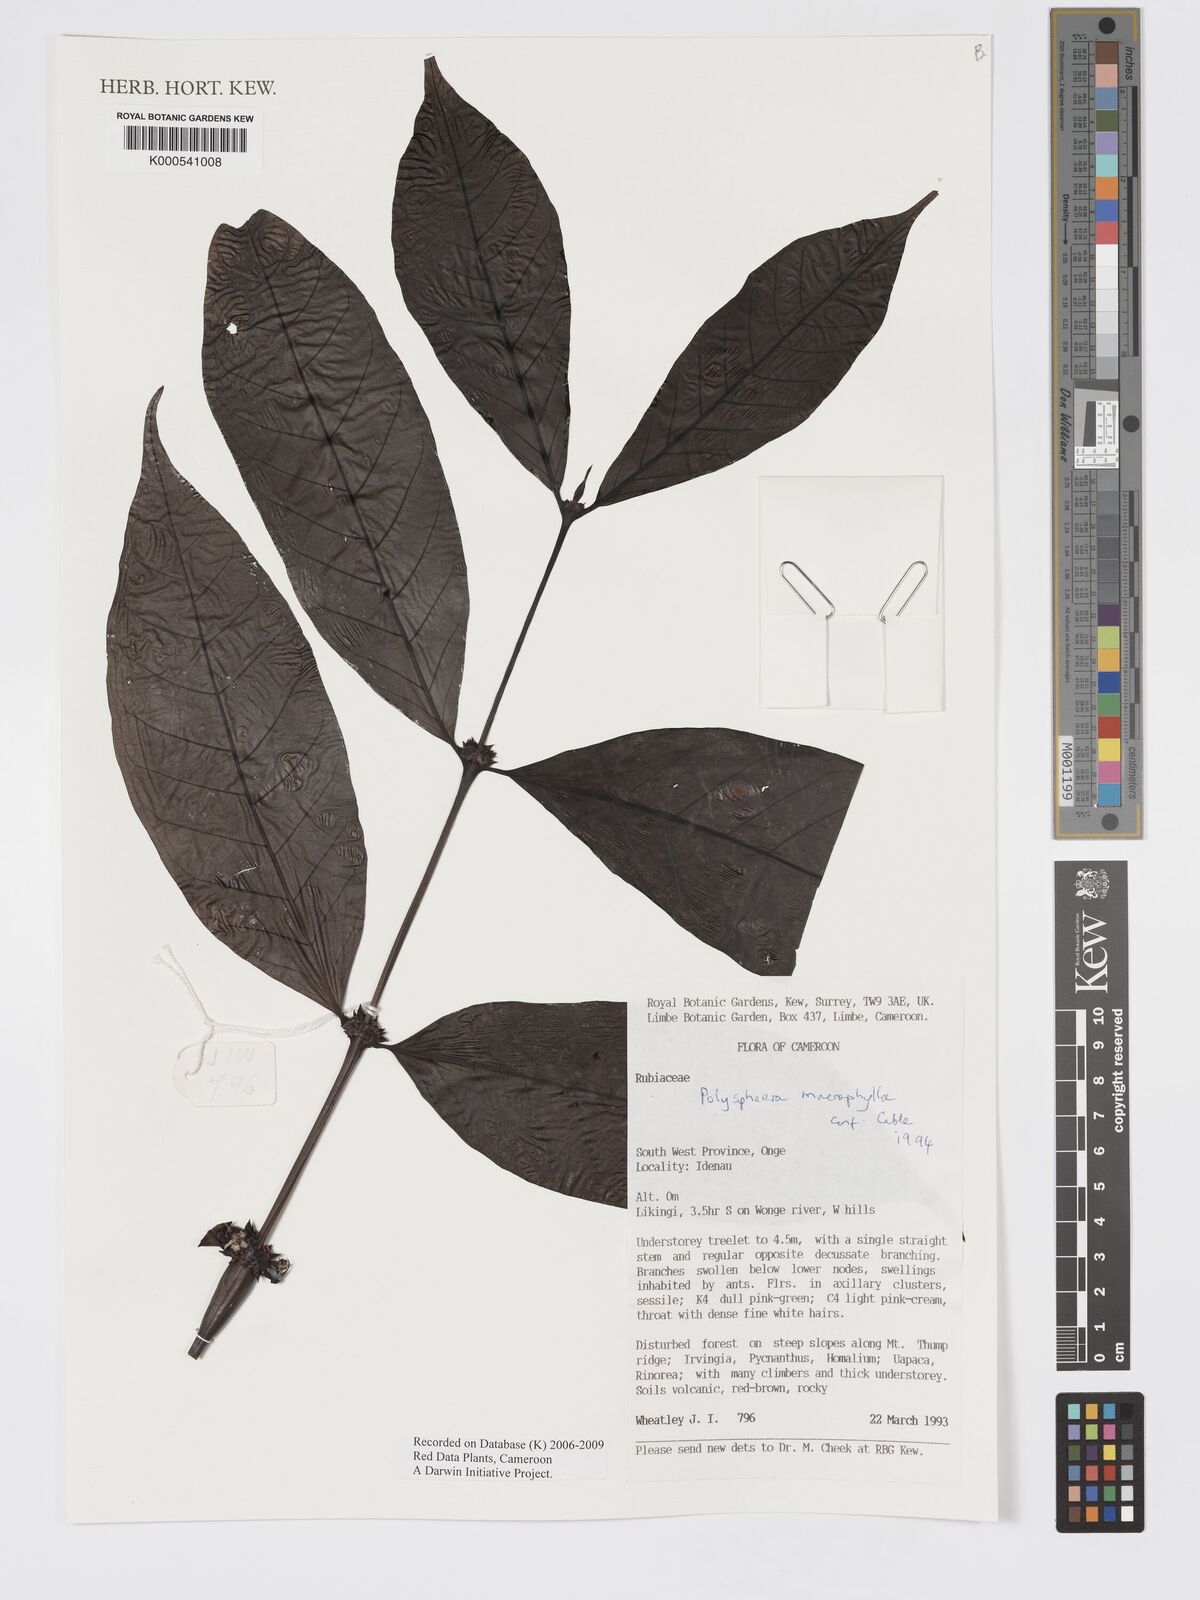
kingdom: Plantae
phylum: Tracheophyta
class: Magnoliopsida
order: Gentianales
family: Rubiaceae
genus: Polysphaeria
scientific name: Polysphaeria macrophylla
